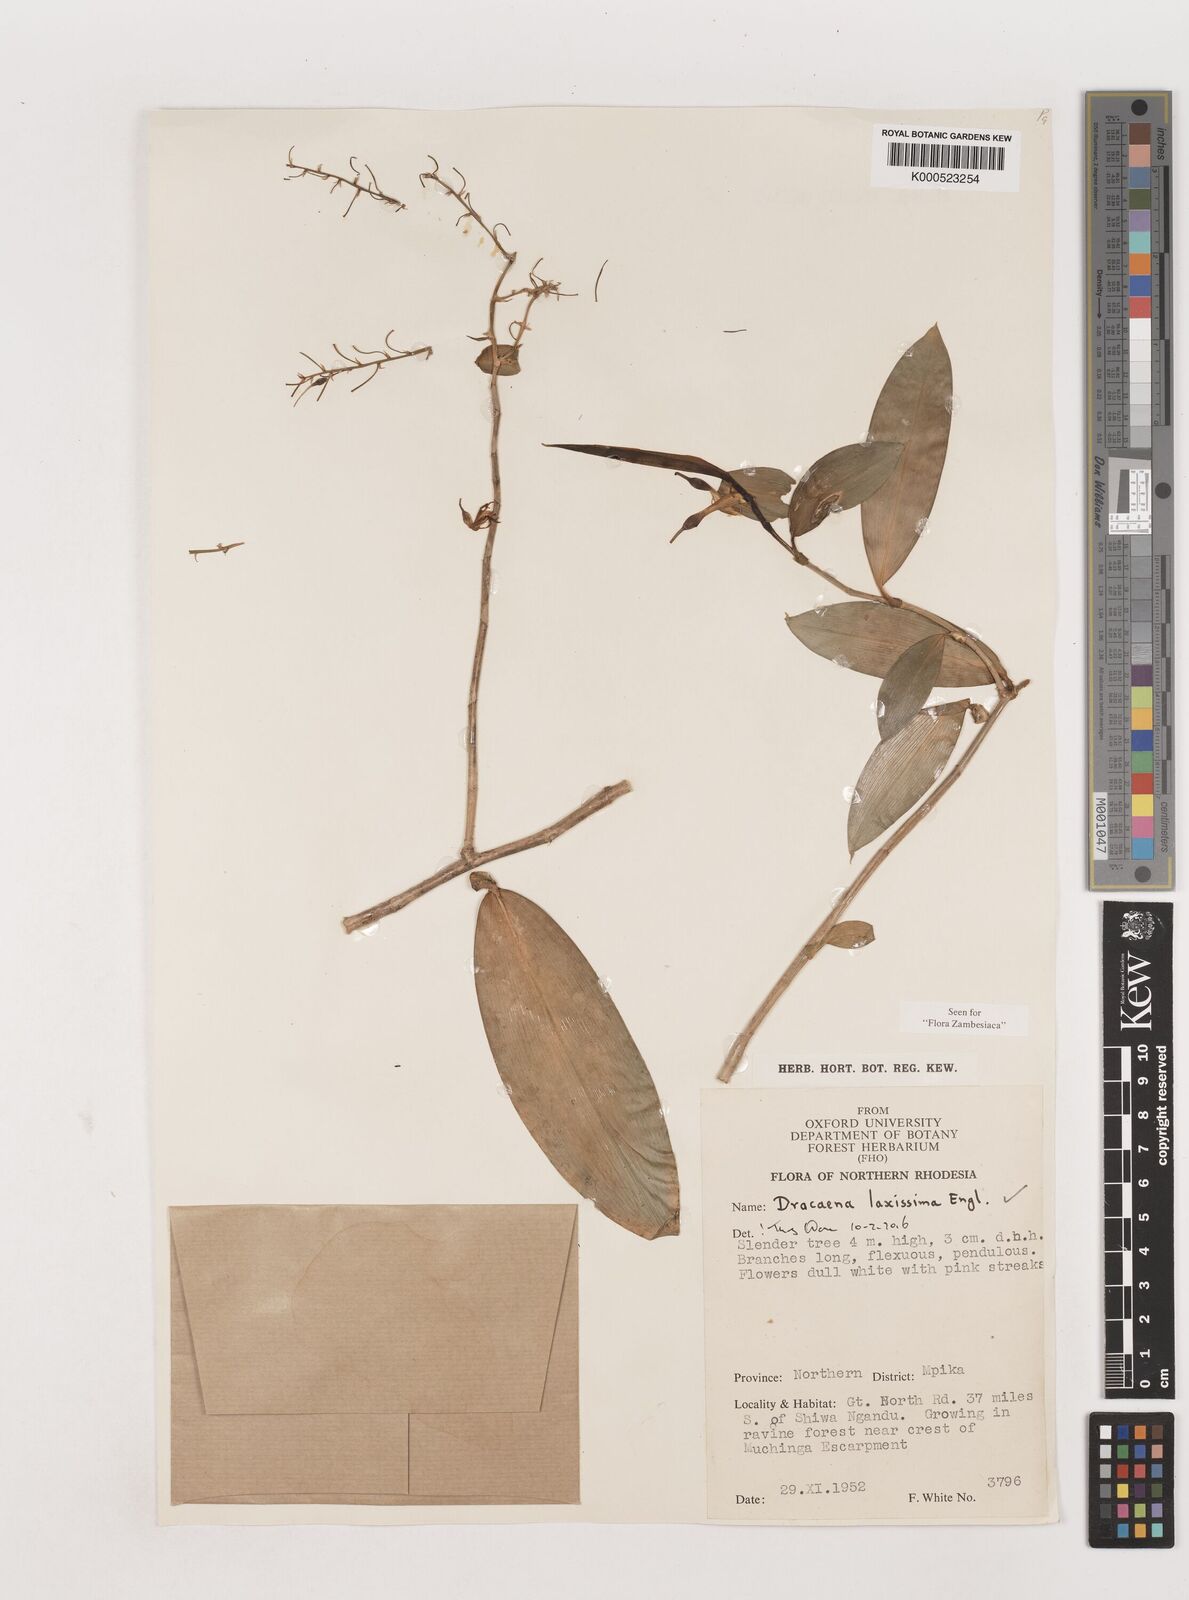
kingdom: Plantae
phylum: Tracheophyta
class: Liliopsida
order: Asparagales
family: Asparagaceae
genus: Dracaena
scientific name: Dracaena laxissima
